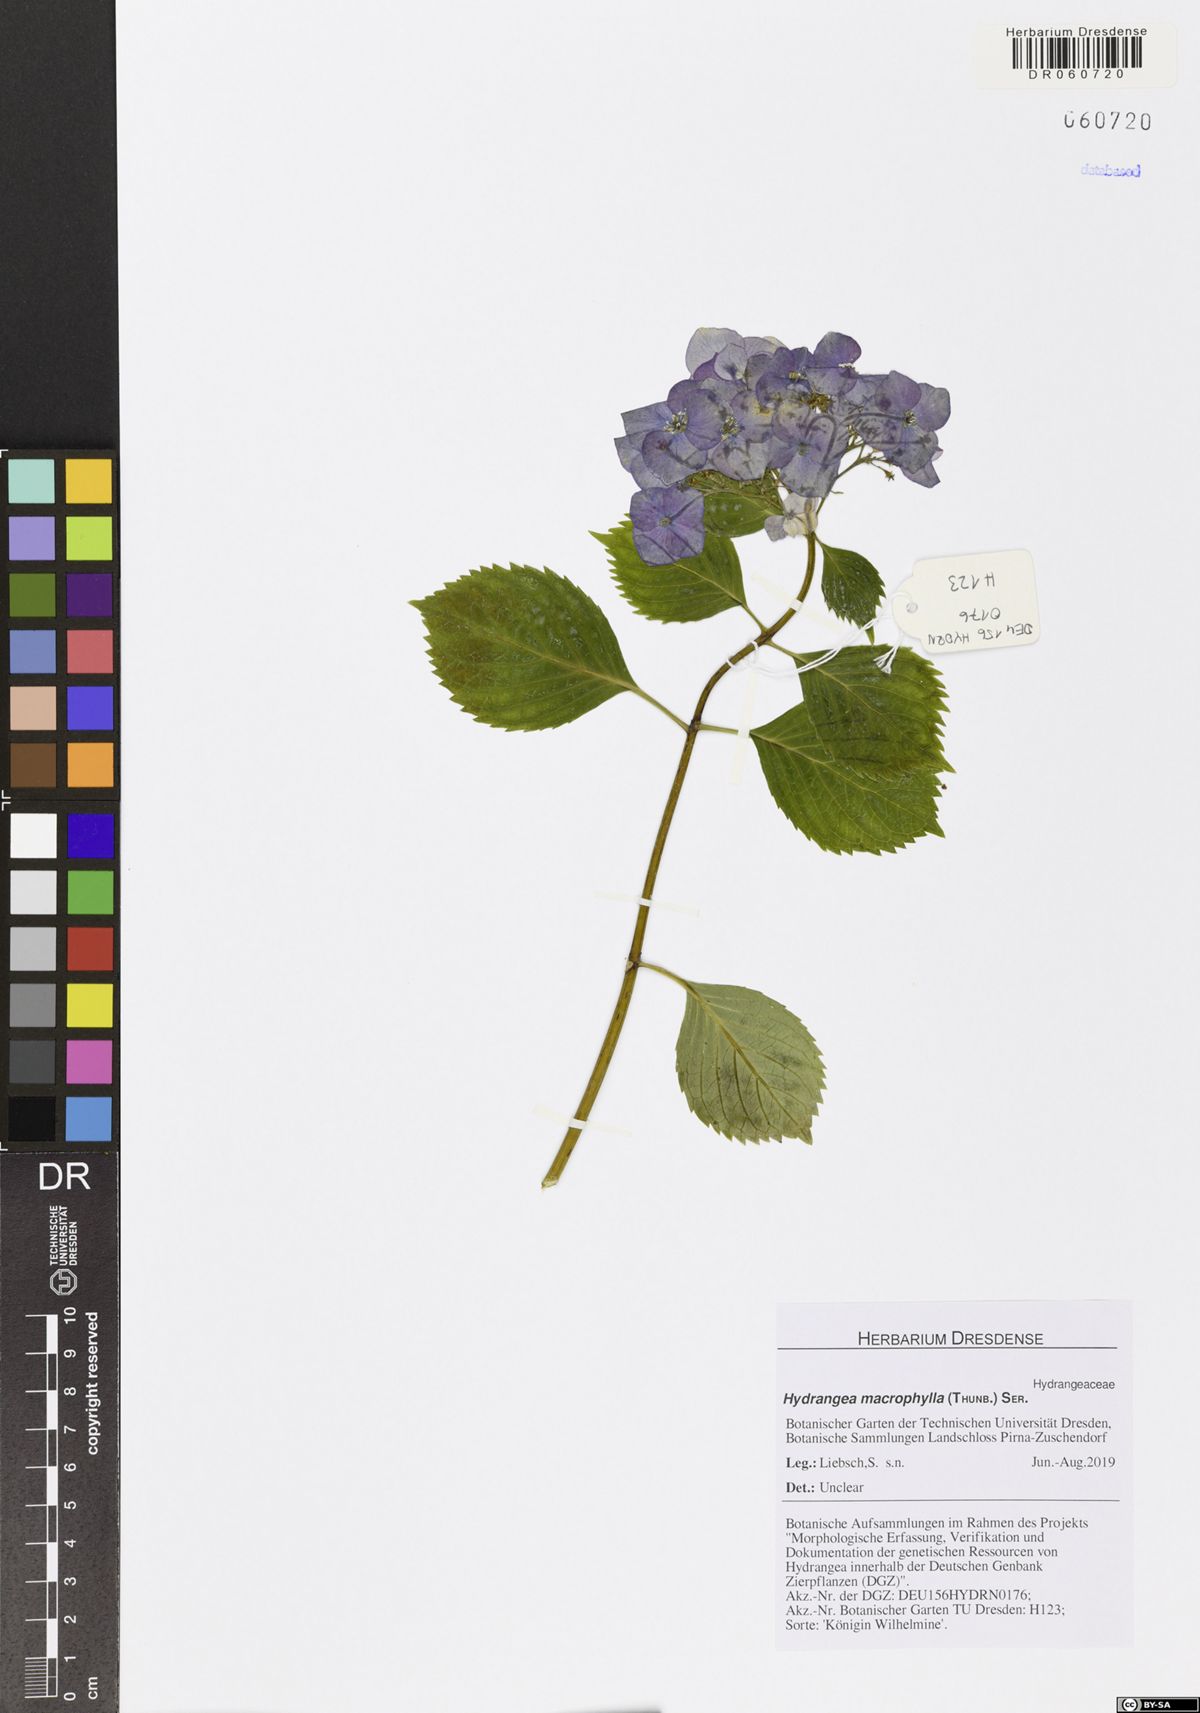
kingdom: Plantae
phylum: Tracheophyta
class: Magnoliopsida
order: Cornales
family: Hydrangeaceae
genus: Hydrangea
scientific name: Hydrangea macrophylla
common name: Hydrangea
